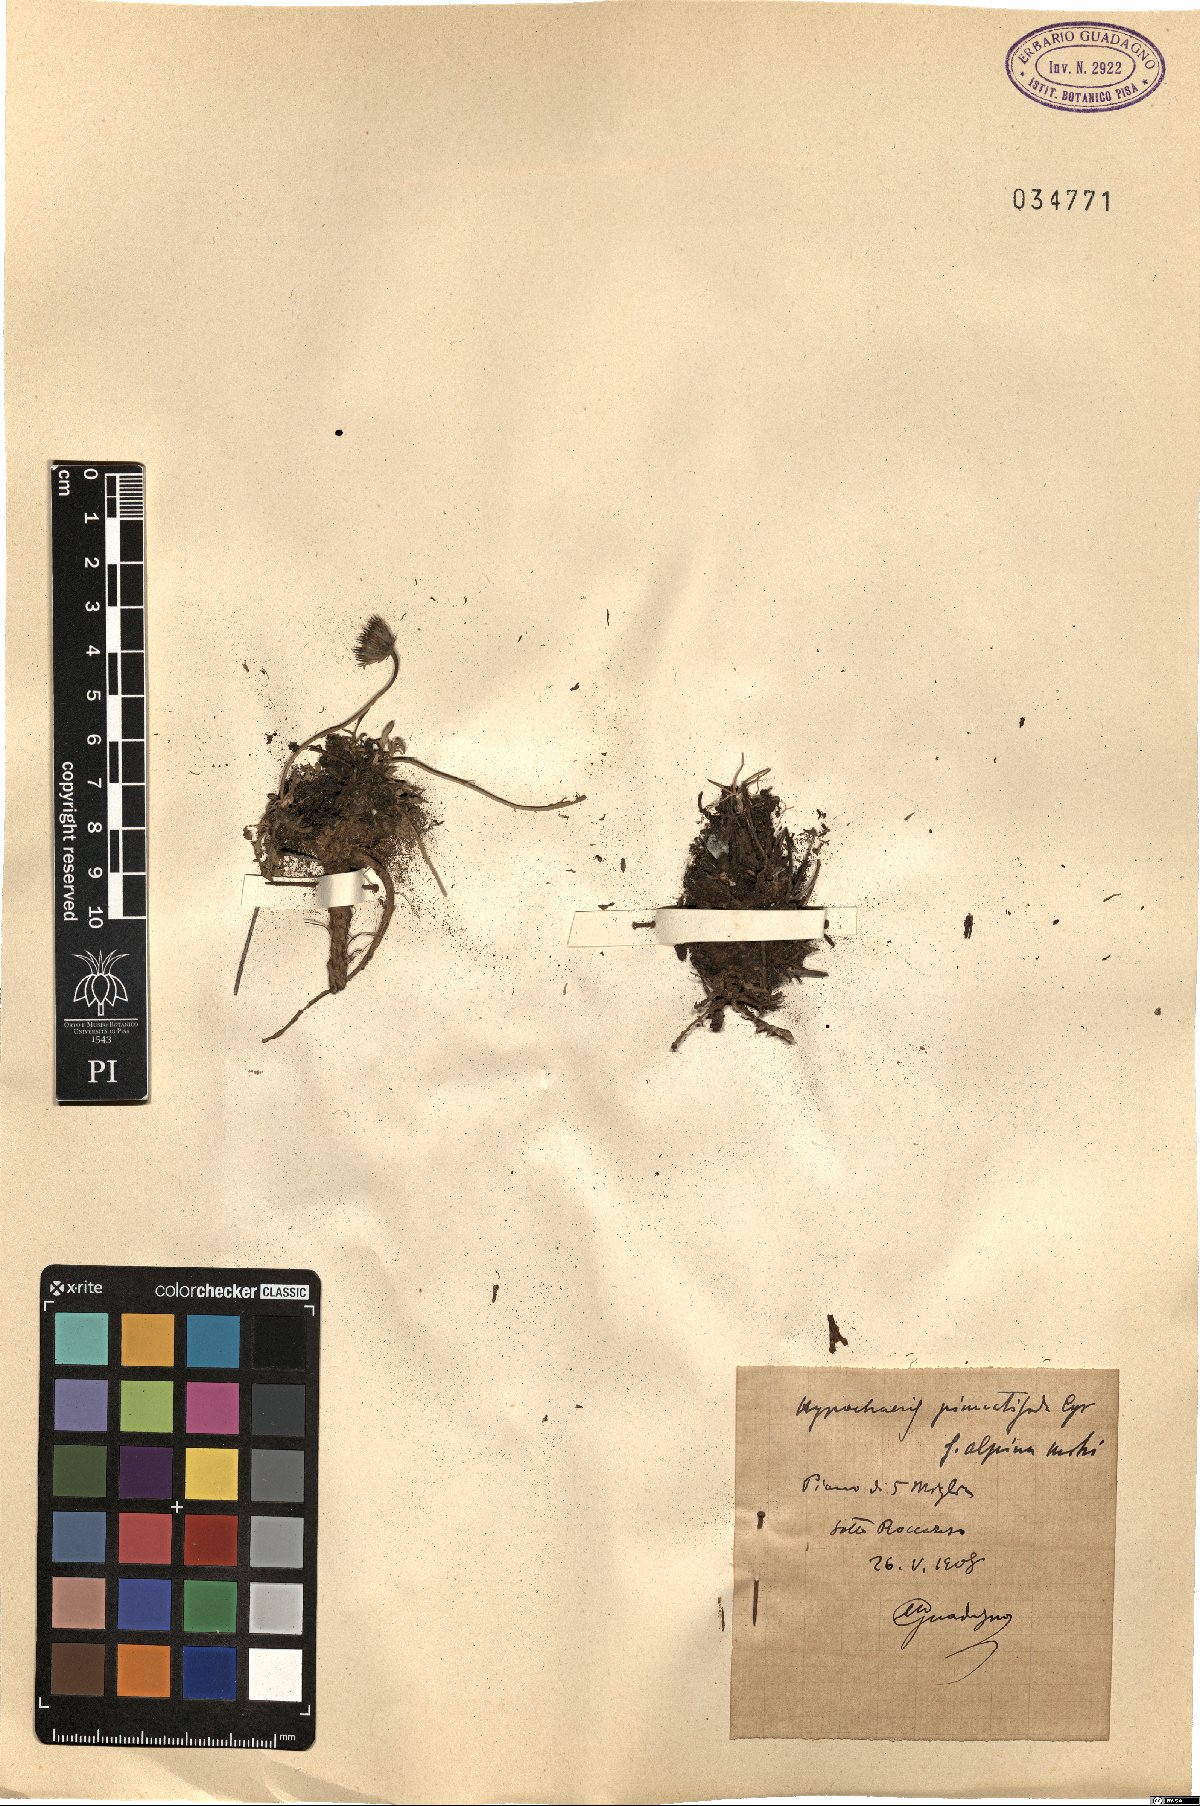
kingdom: Plantae
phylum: Tracheophyta
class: Magnoliopsida
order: Asterales
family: Asteraceae
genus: Hypochaeris
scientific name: Hypochaeris
